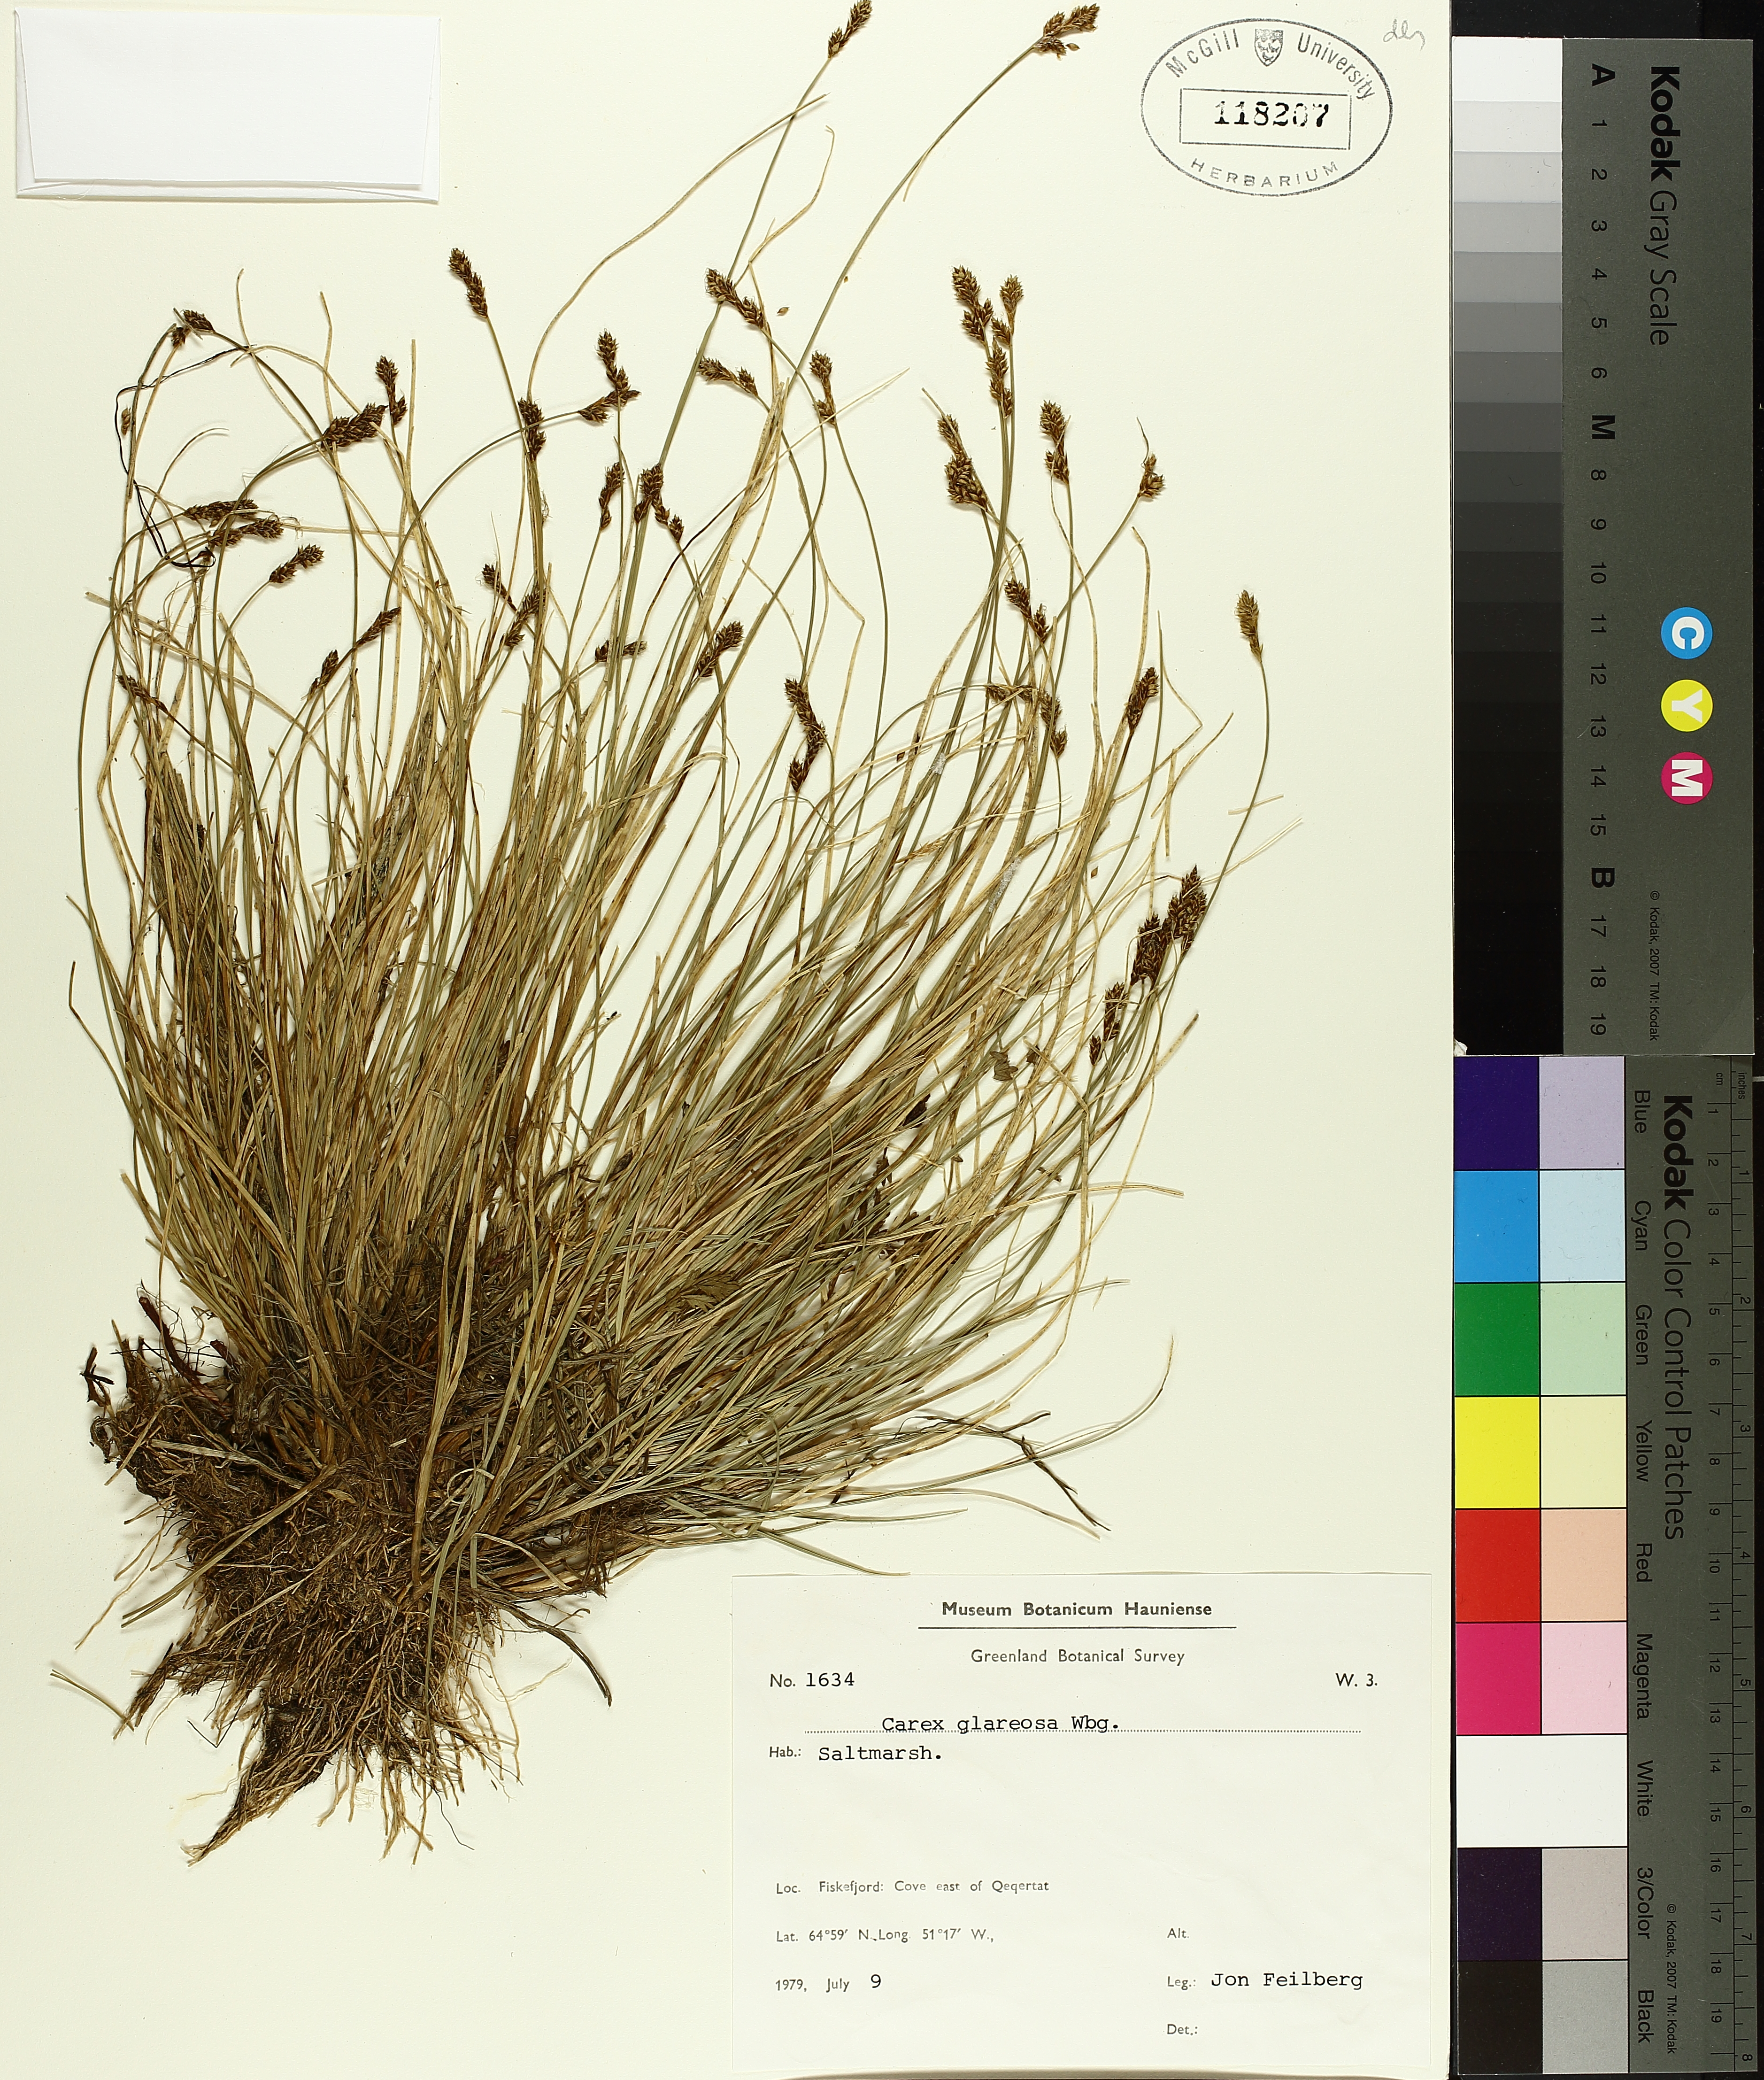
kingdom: Plantae
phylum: Tracheophyta
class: Liliopsida
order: Poales
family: Cyperaceae
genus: Carex
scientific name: Carex bigelowii
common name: Stiff sedge
